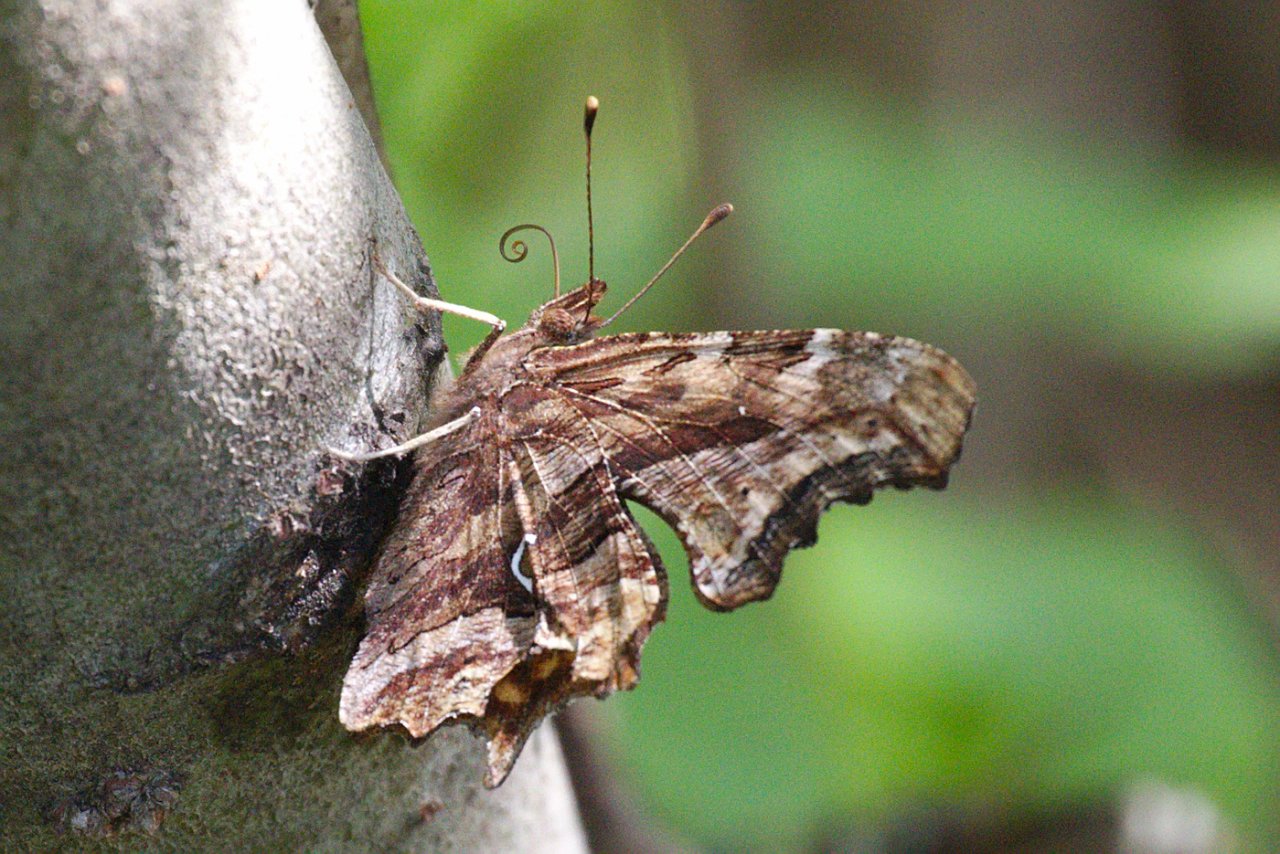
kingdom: Animalia
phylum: Arthropoda
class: Insecta
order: Lepidoptera
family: Nymphalidae
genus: Polygonia
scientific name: Polygonia faunus
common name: Green Comma
